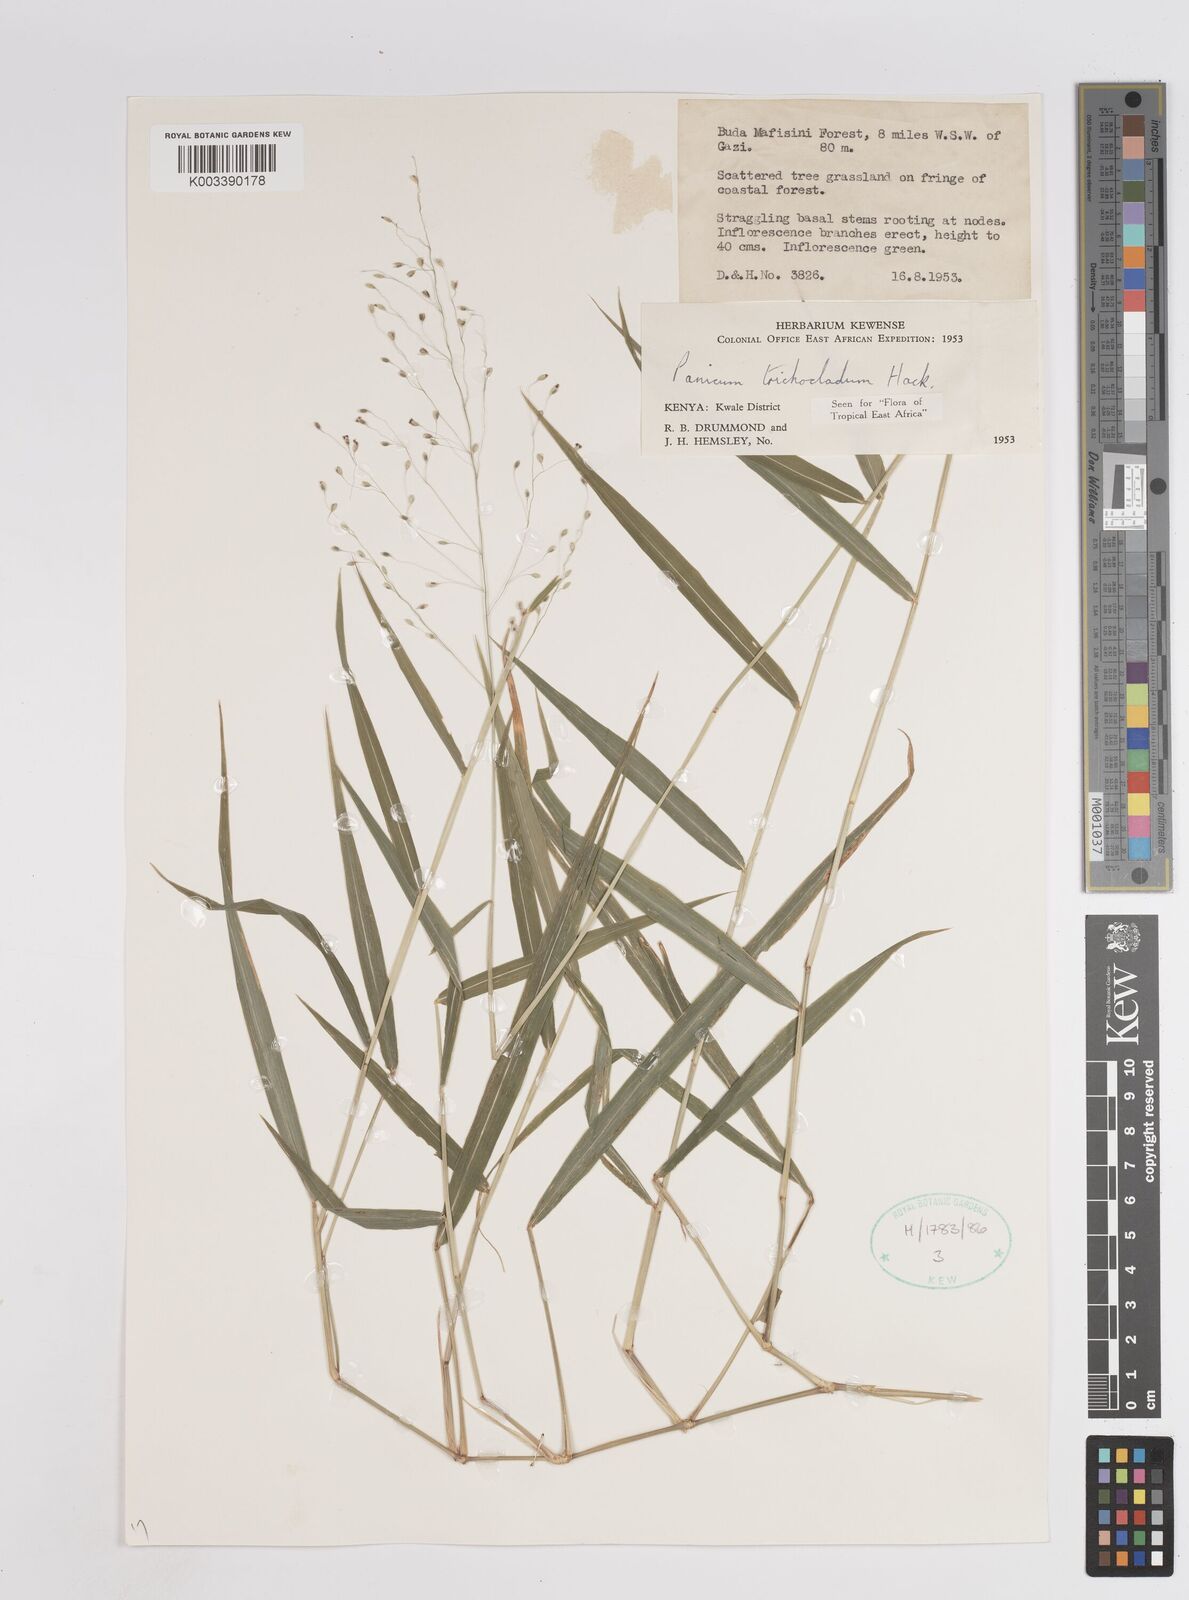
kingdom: Plantae
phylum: Tracheophyta
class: Liliopsida
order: Poales
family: Poaceae
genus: Panicum
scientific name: Panicum trichocladum
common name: Donkey grass
